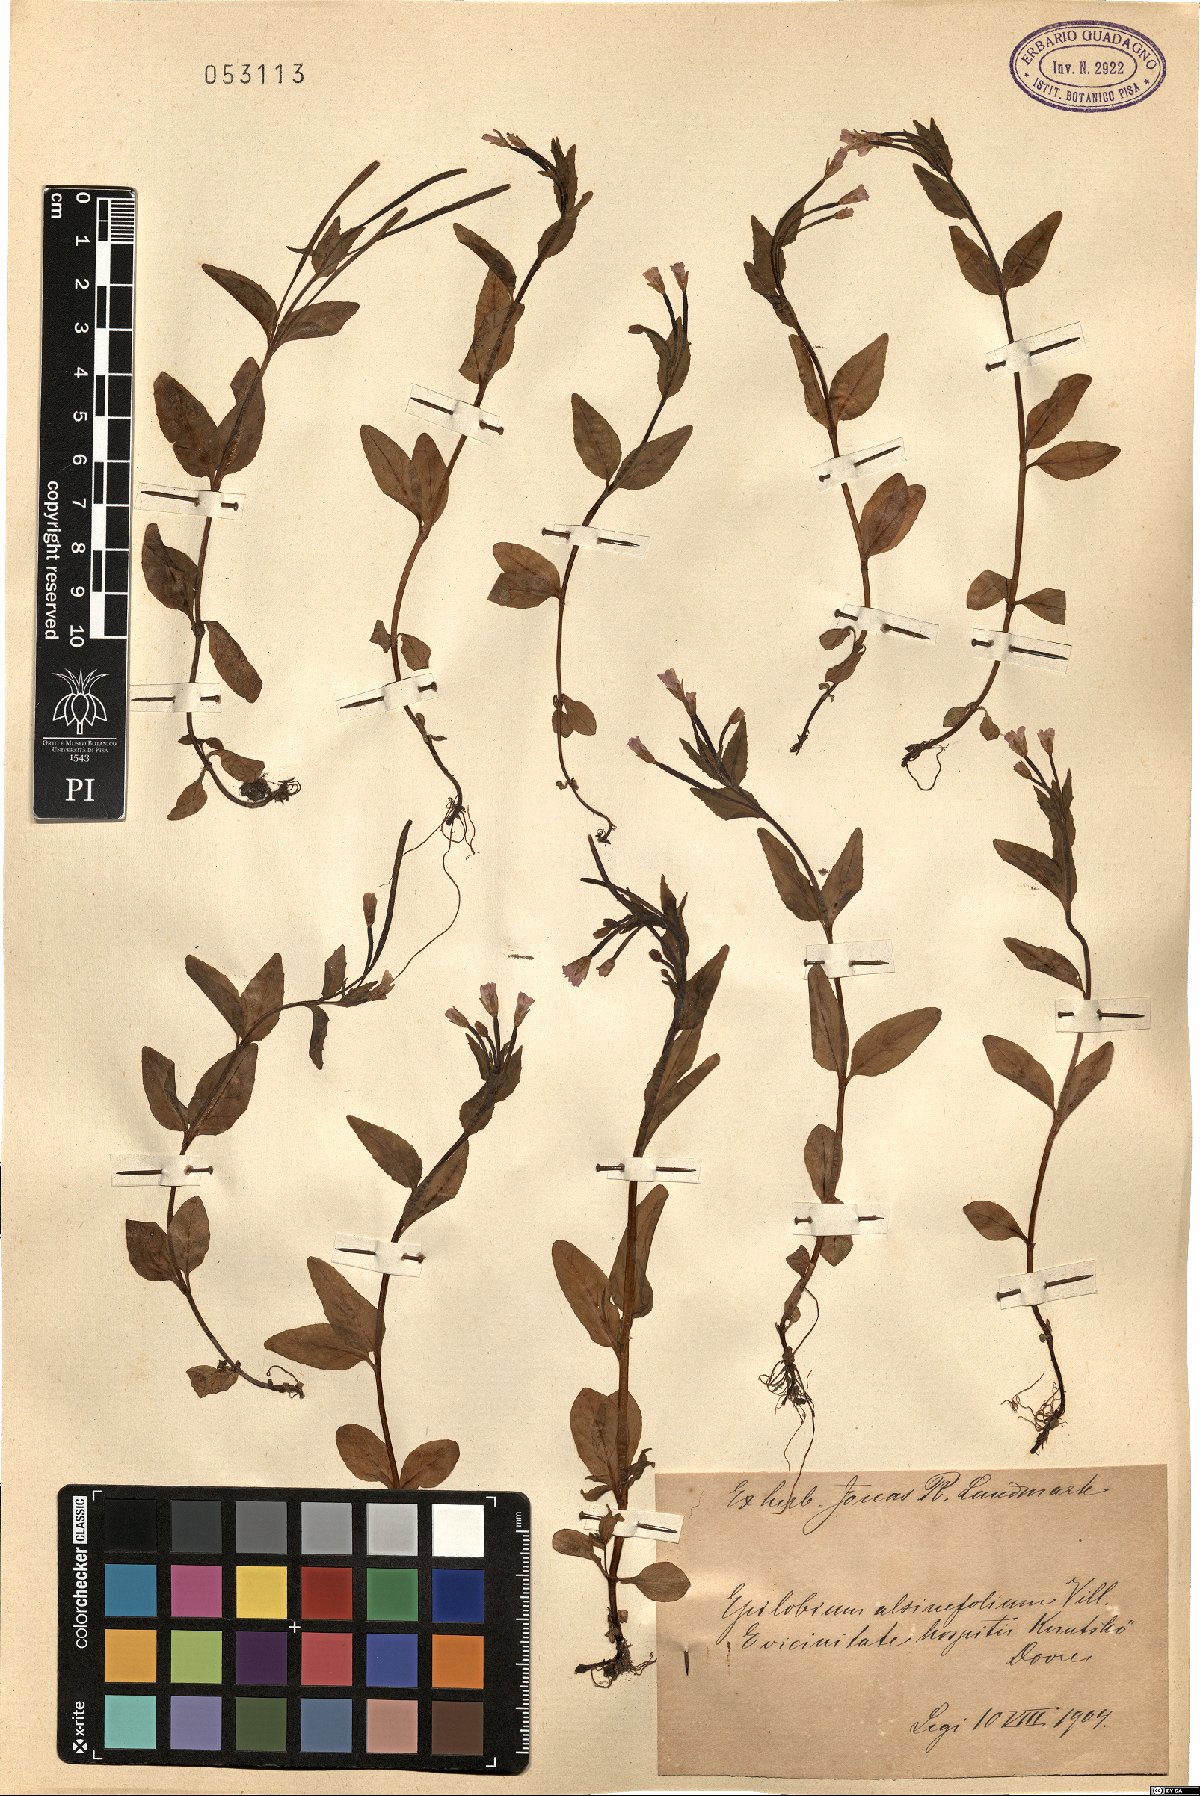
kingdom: Plantae
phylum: Tracheophyta
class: Magnoliopsida
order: Myrtales
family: Onagraceae
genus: Epilobium
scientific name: Epilobium alsinifolium
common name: Chickweed willowherb
